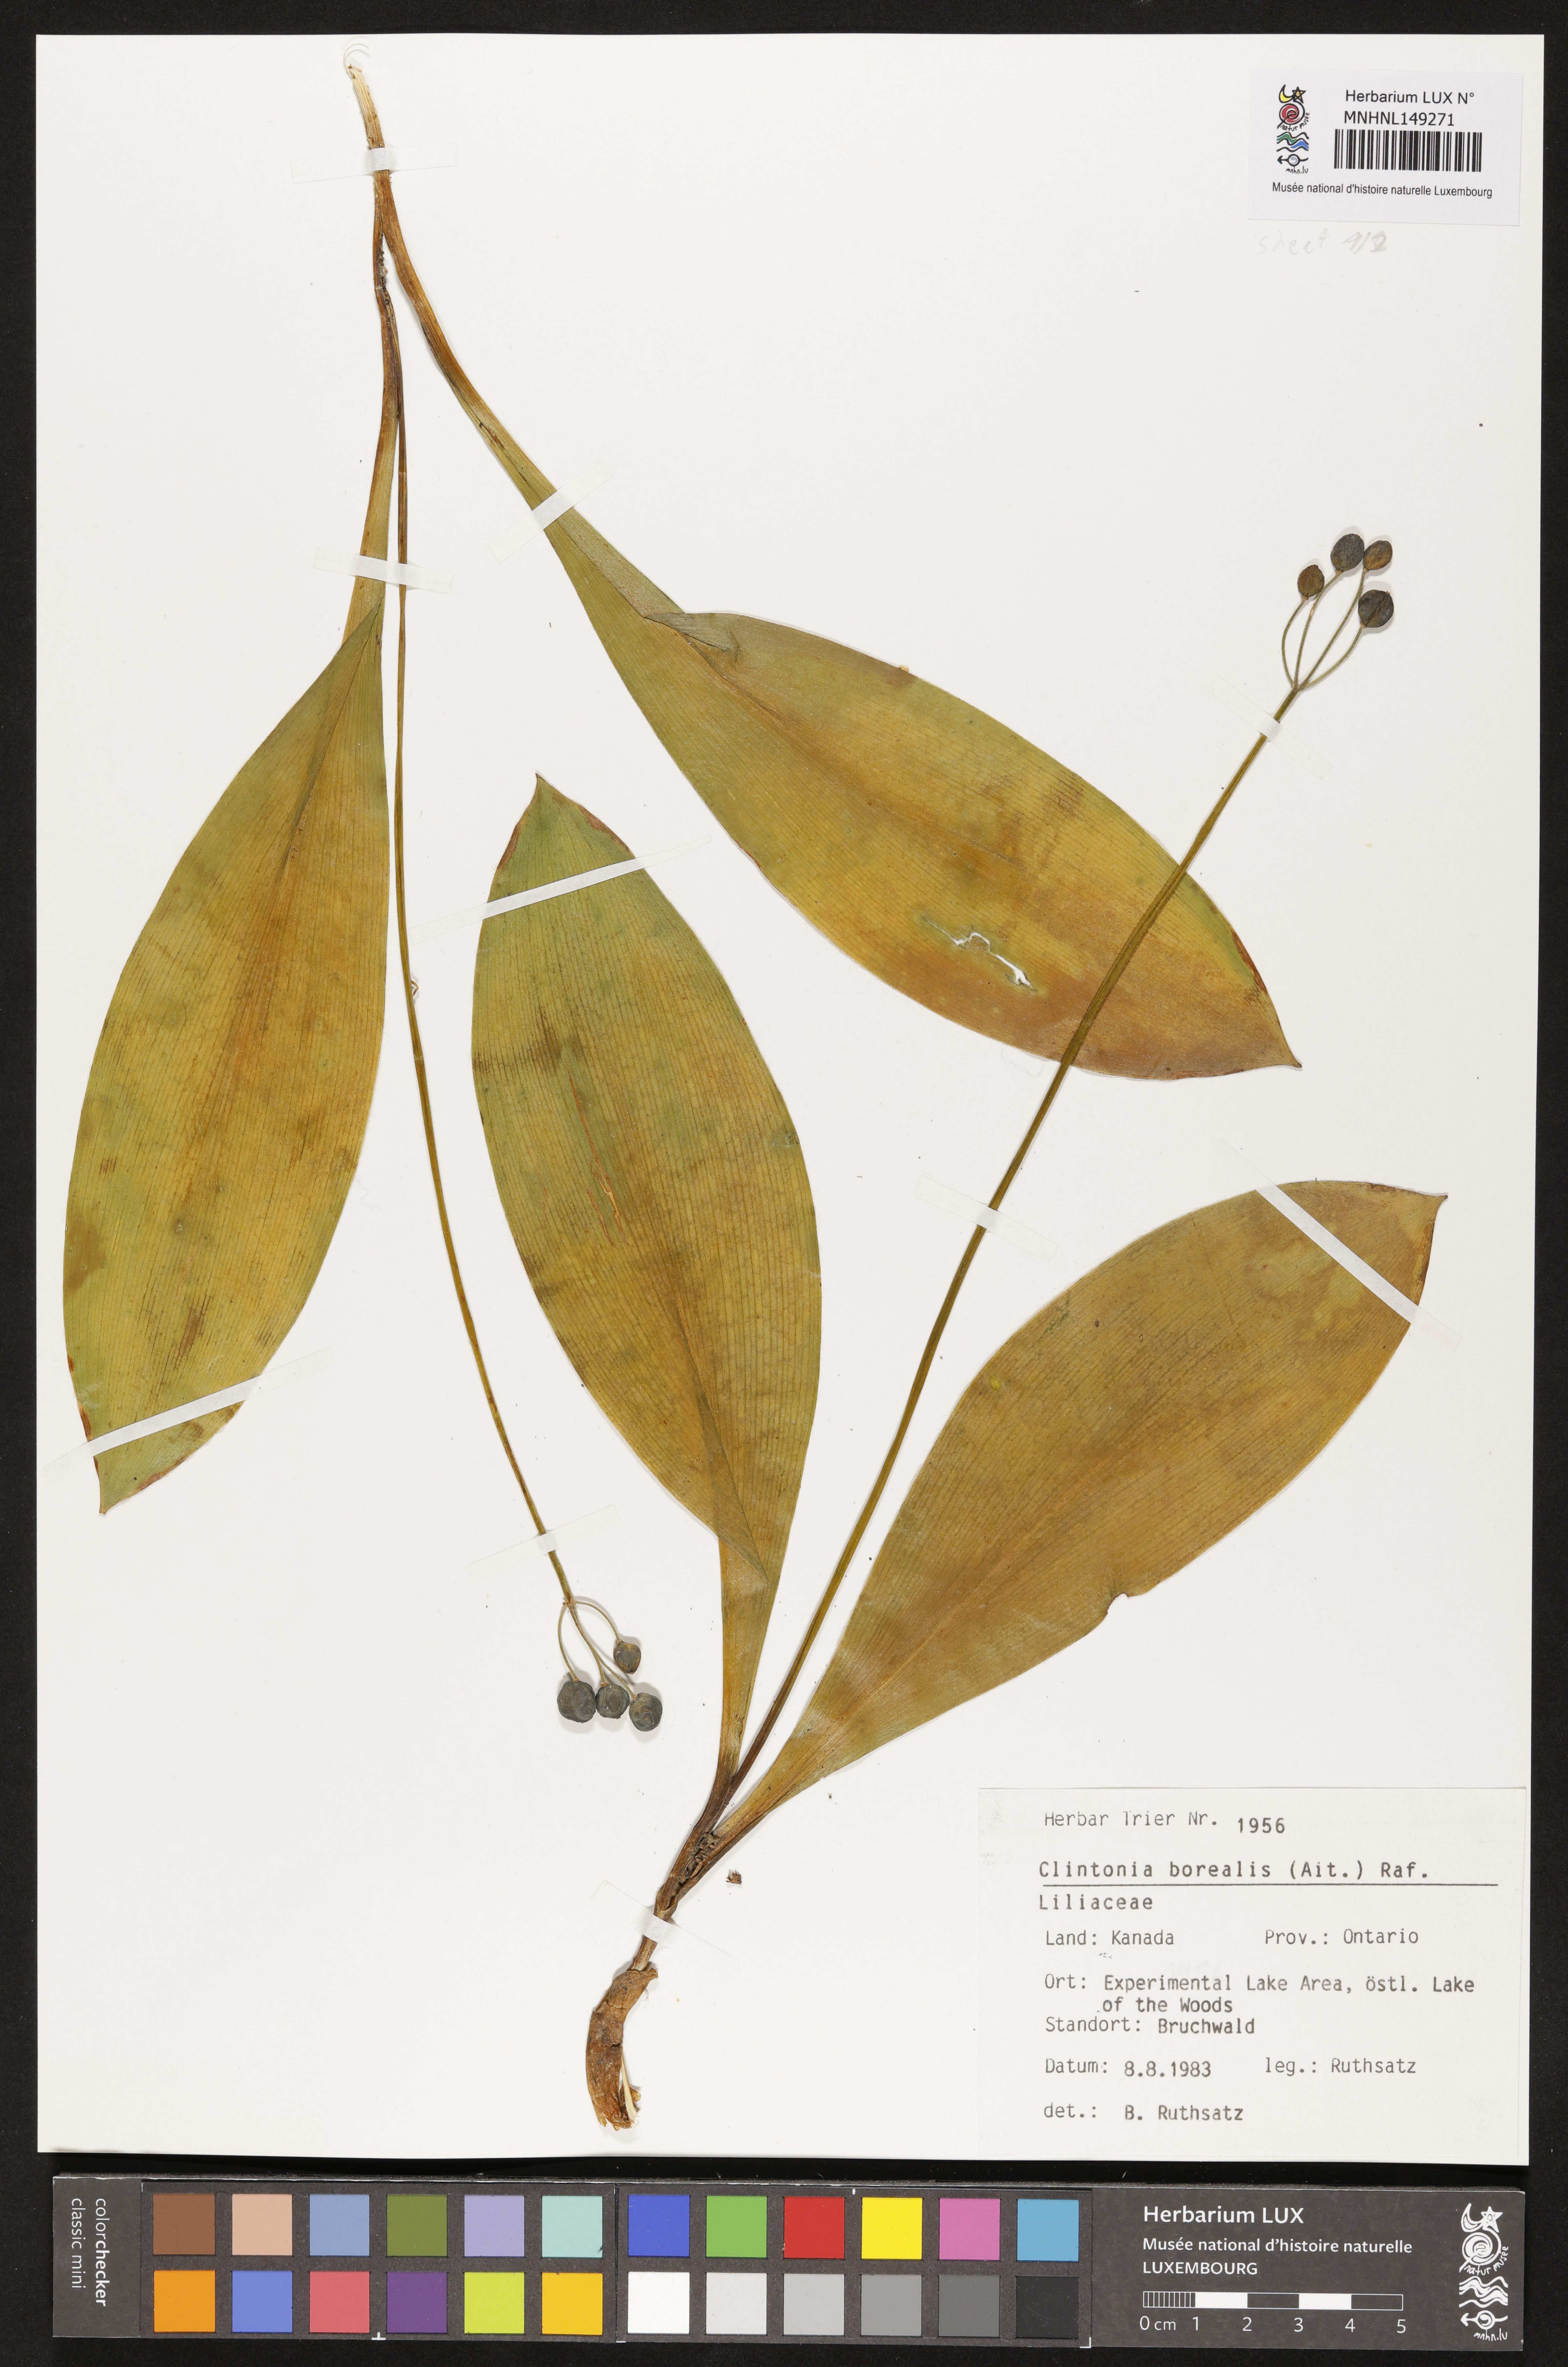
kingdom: Plantae
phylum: Tracheophyta
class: Liliopsida
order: Liliales
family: Liliaceae
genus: Clintonia
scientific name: Clintonia borealis
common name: Yellow clintonia
